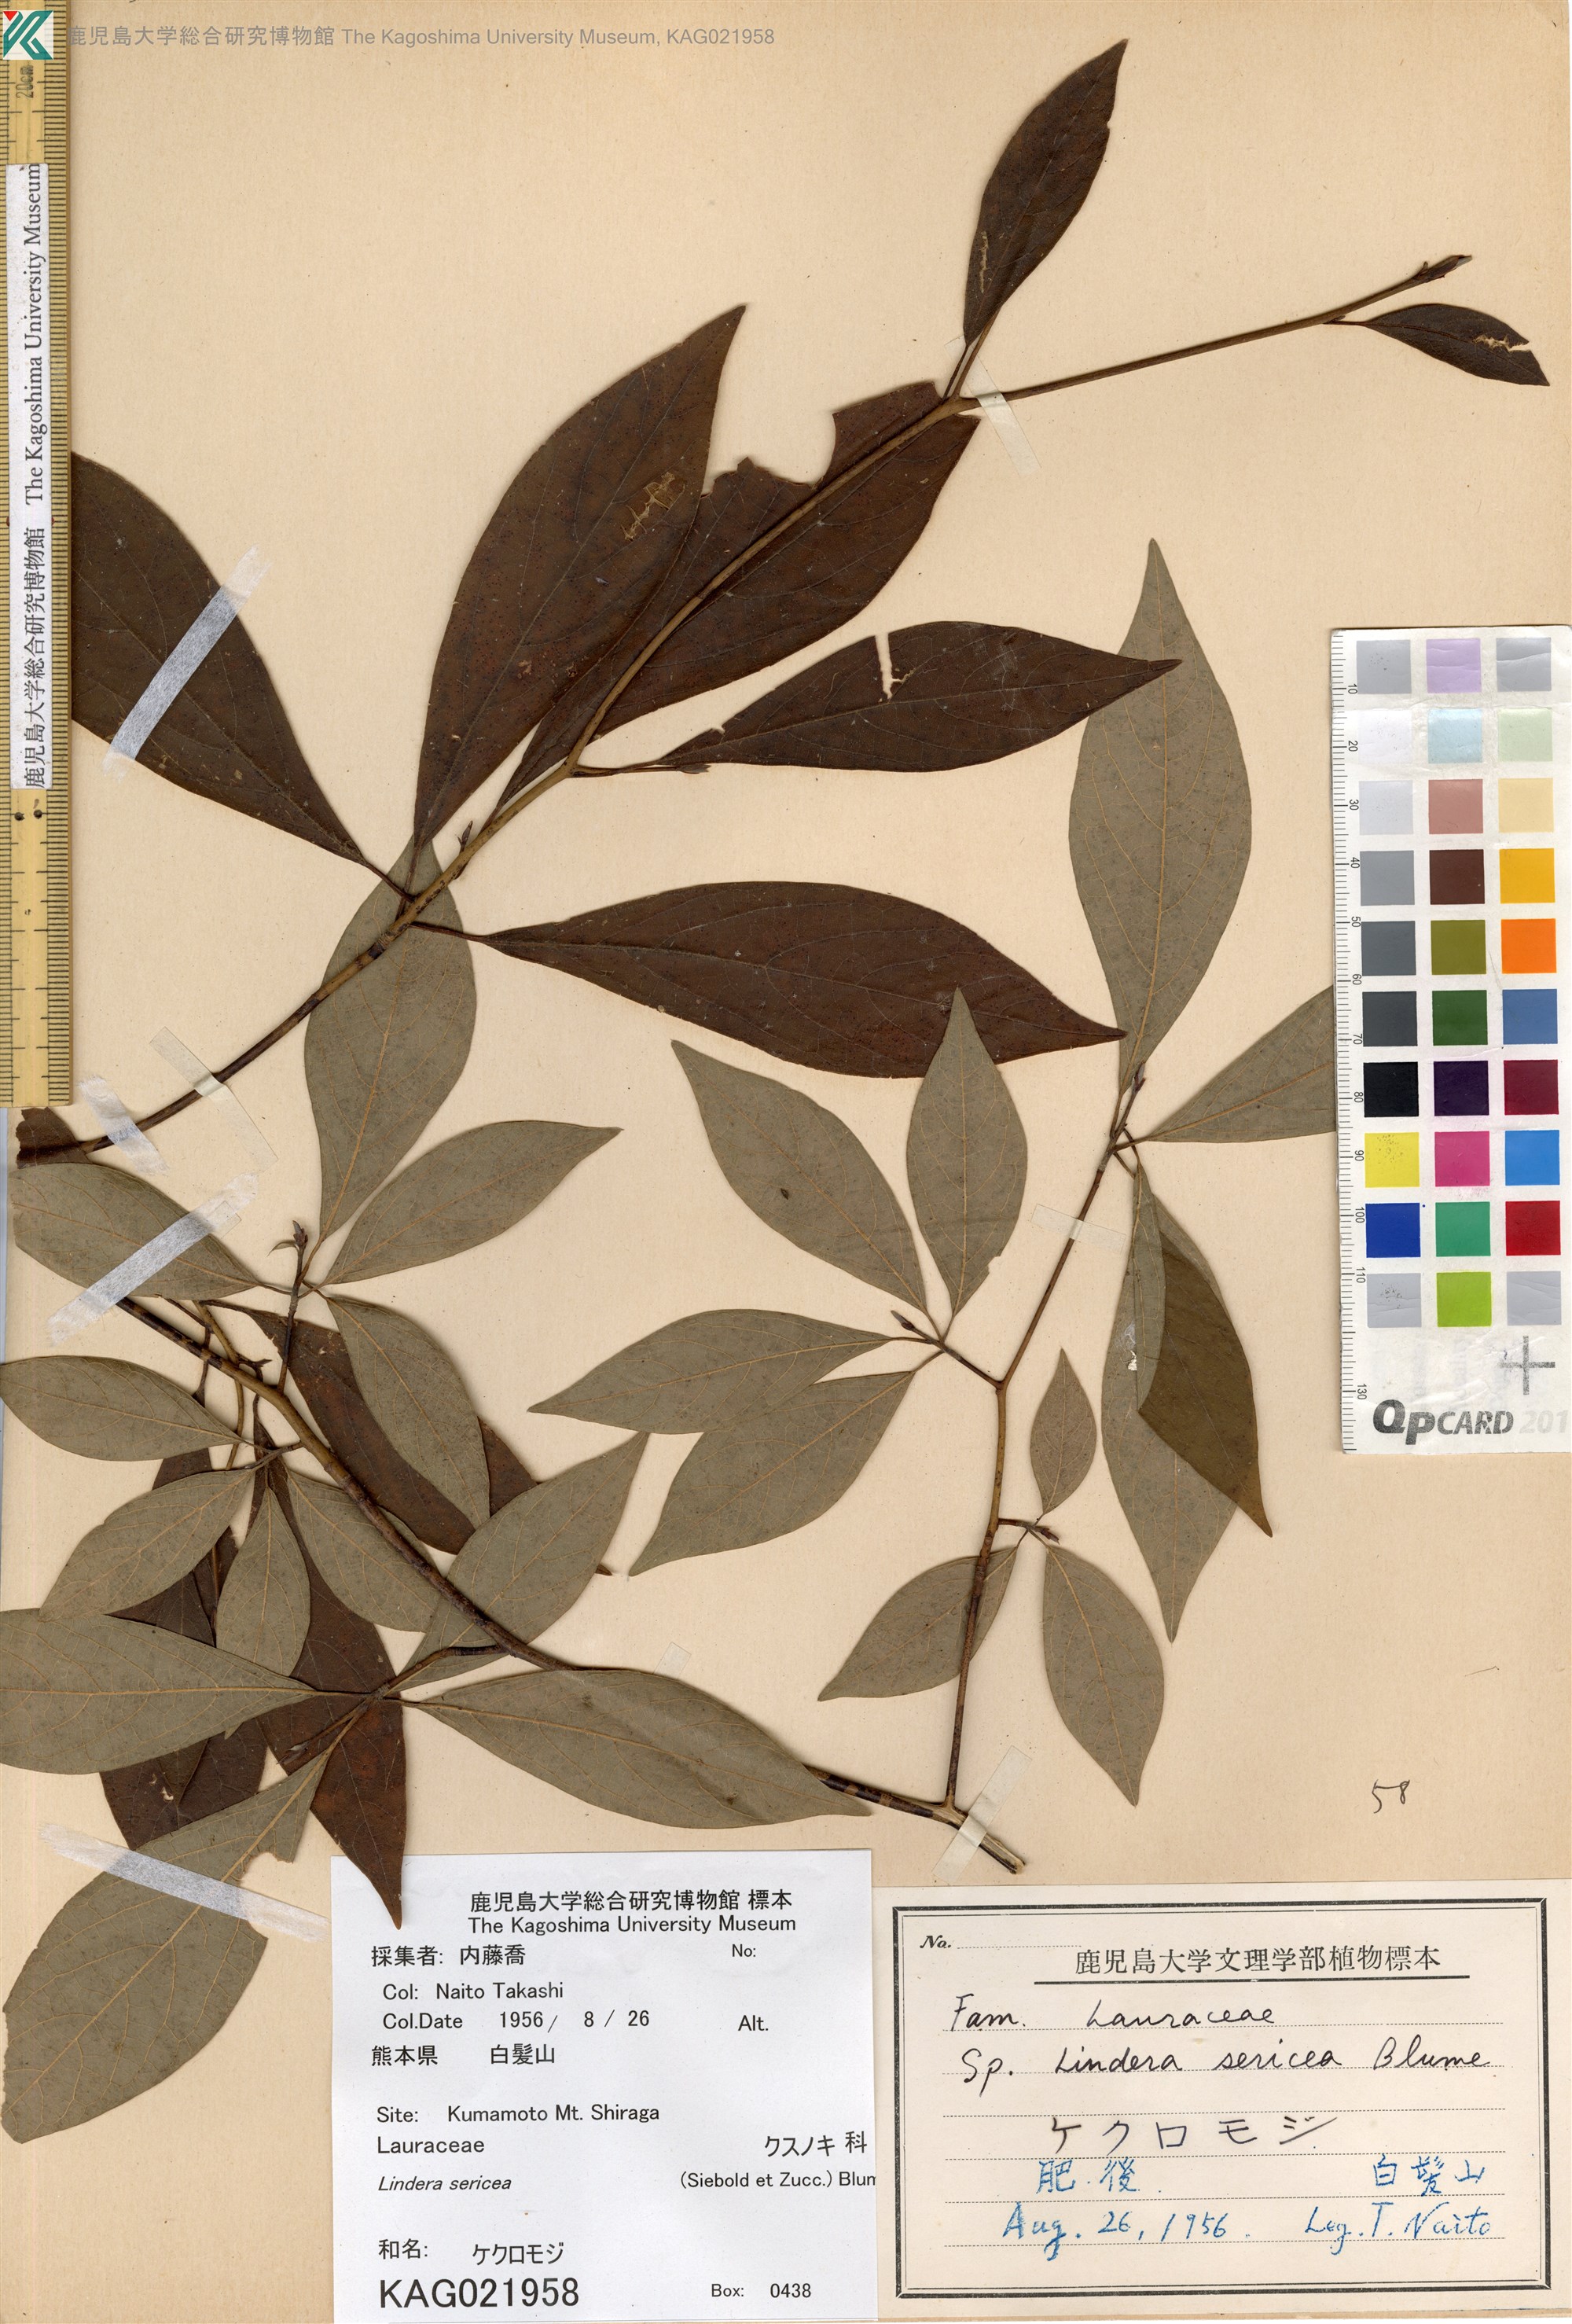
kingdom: Plantae
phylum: Tracheophyta
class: Magnoliopsida
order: Laurales
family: Lauraceae
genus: Lindera
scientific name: Lindera sericea
